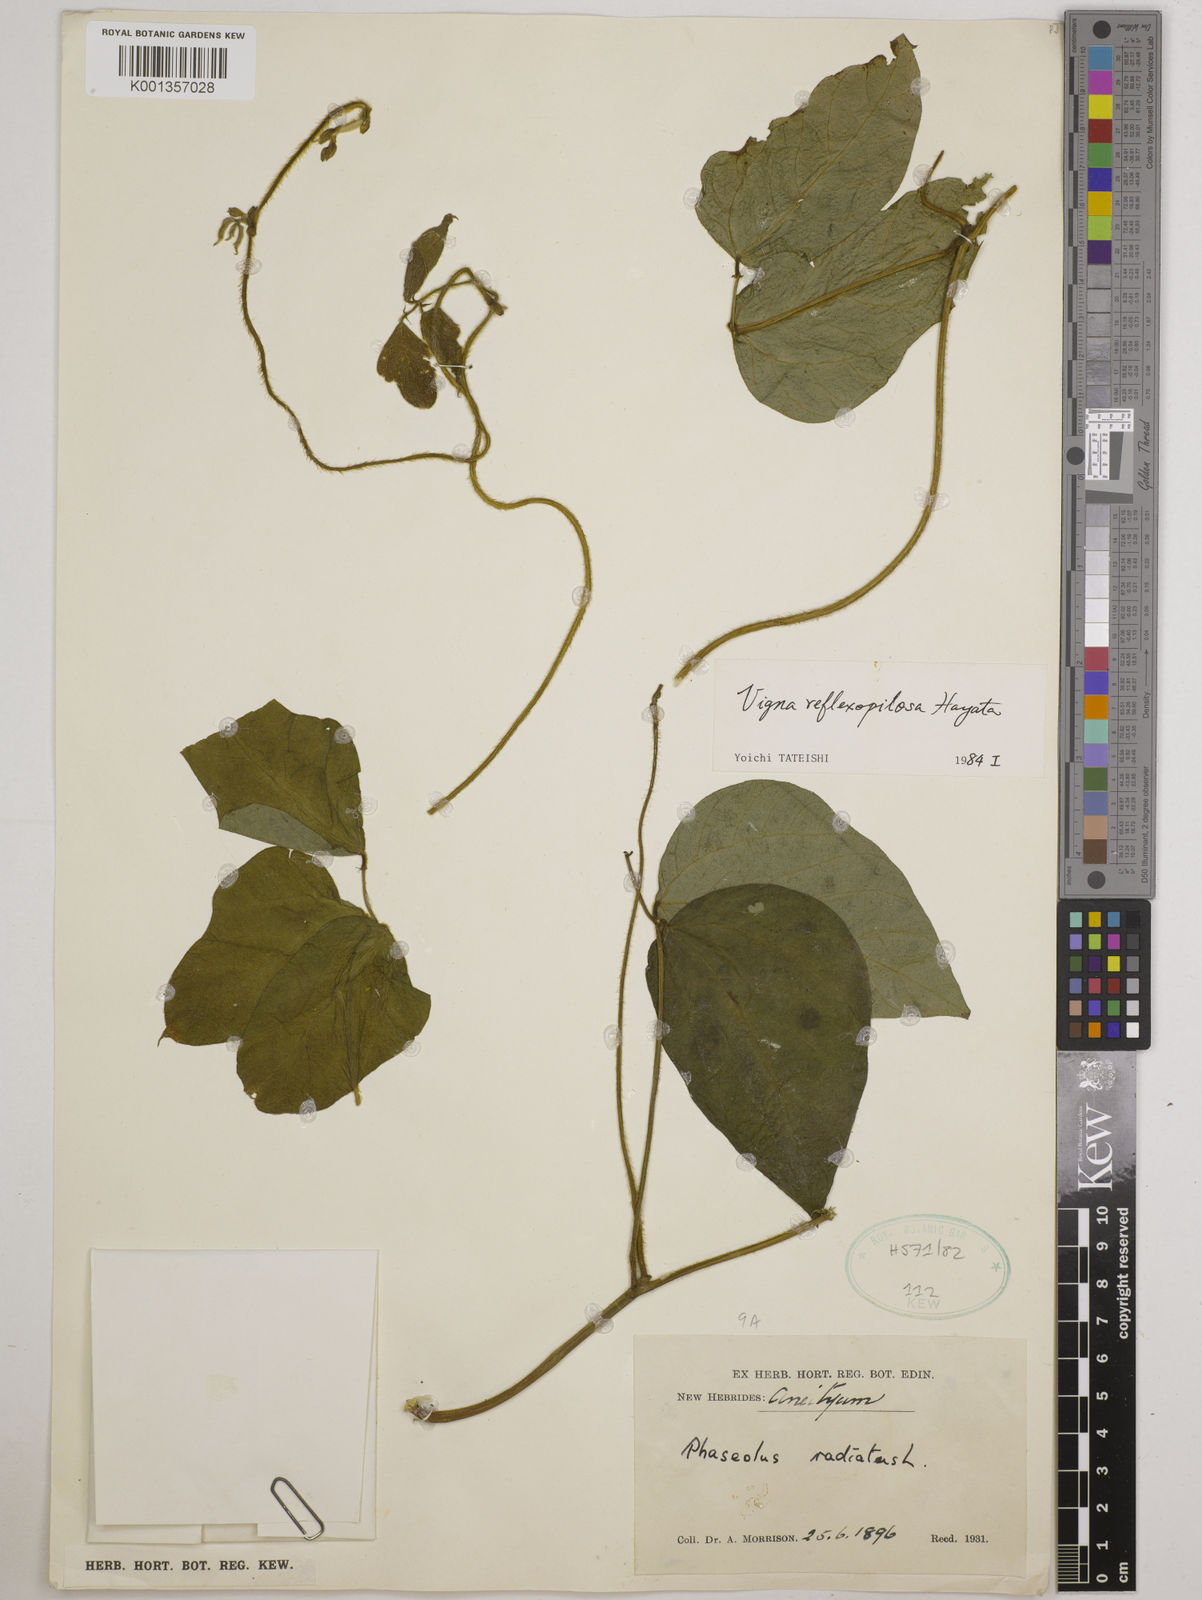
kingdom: Plantae
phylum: Tracheophyta
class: Magnoliopsida
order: Fabales
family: Fabaceae
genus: Vigna
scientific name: Vigna reflexopilosa
